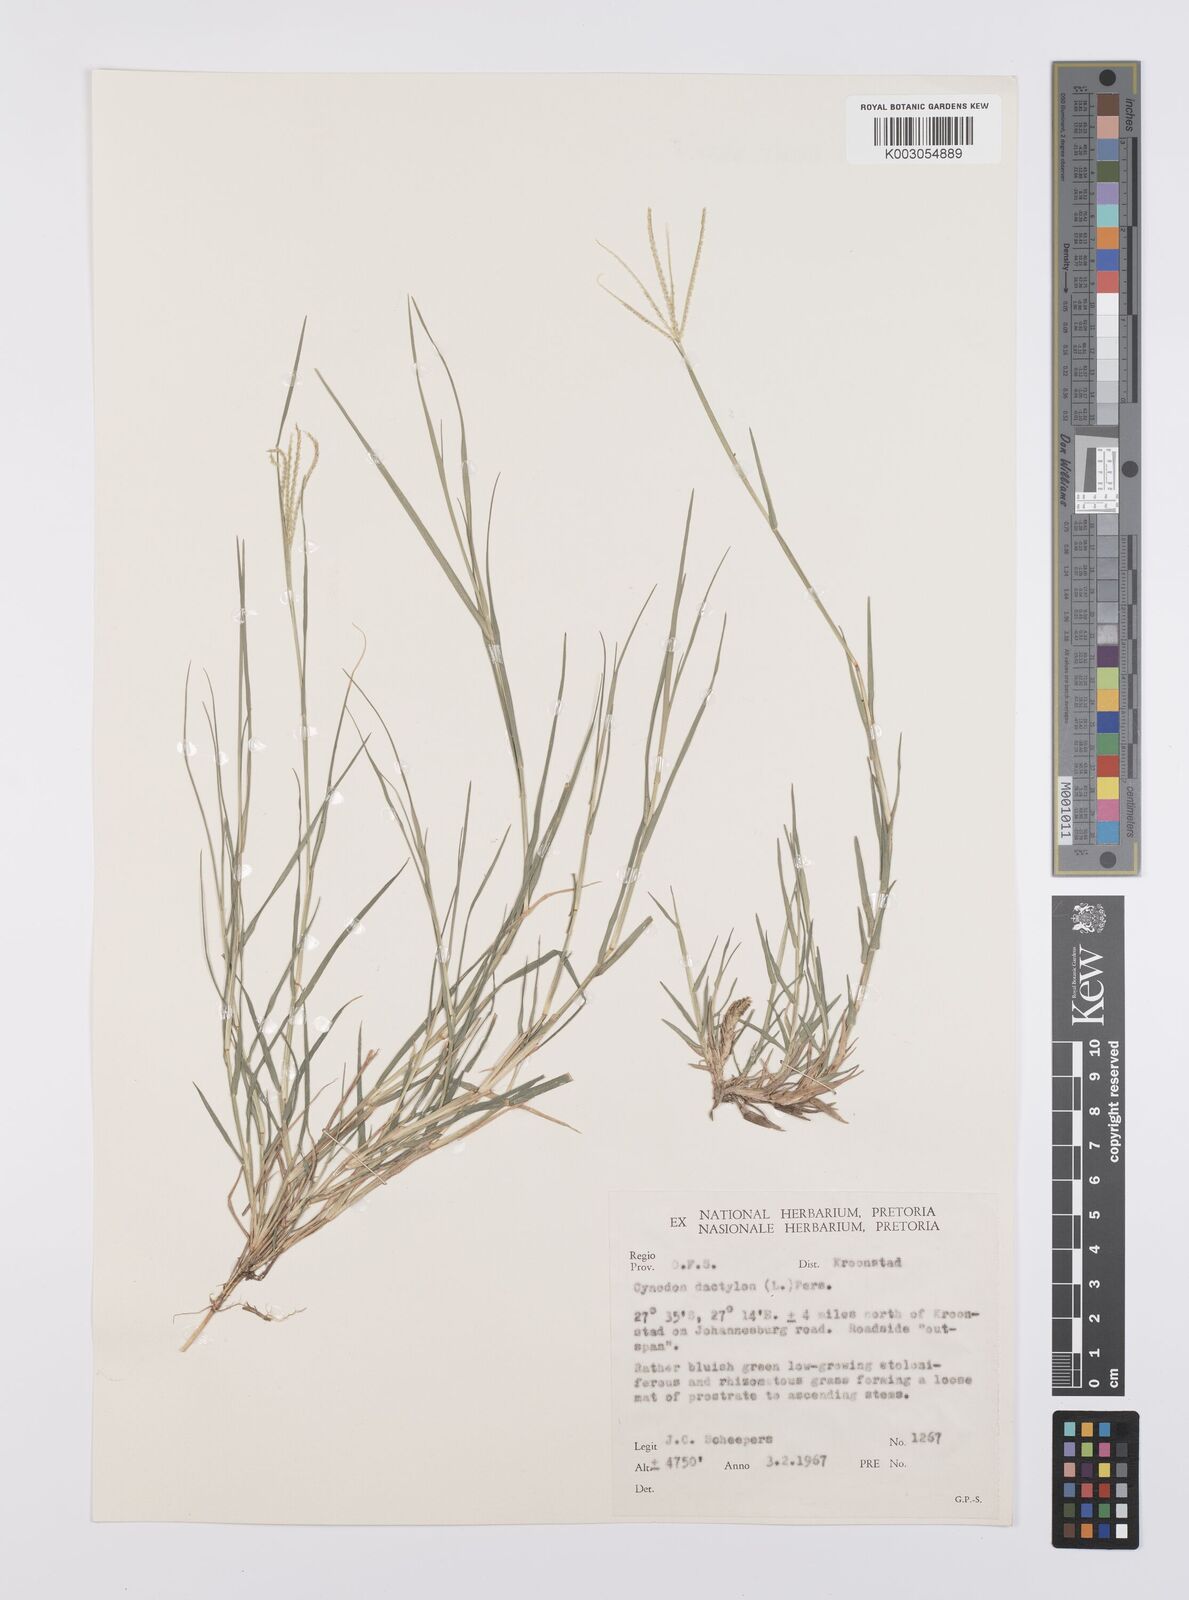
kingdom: Plantae
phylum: Tracheophyta
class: Liliopsida
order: Poales
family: Poaceae
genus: Cynodon
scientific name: Cynodon dactylon
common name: Bermuda grass
